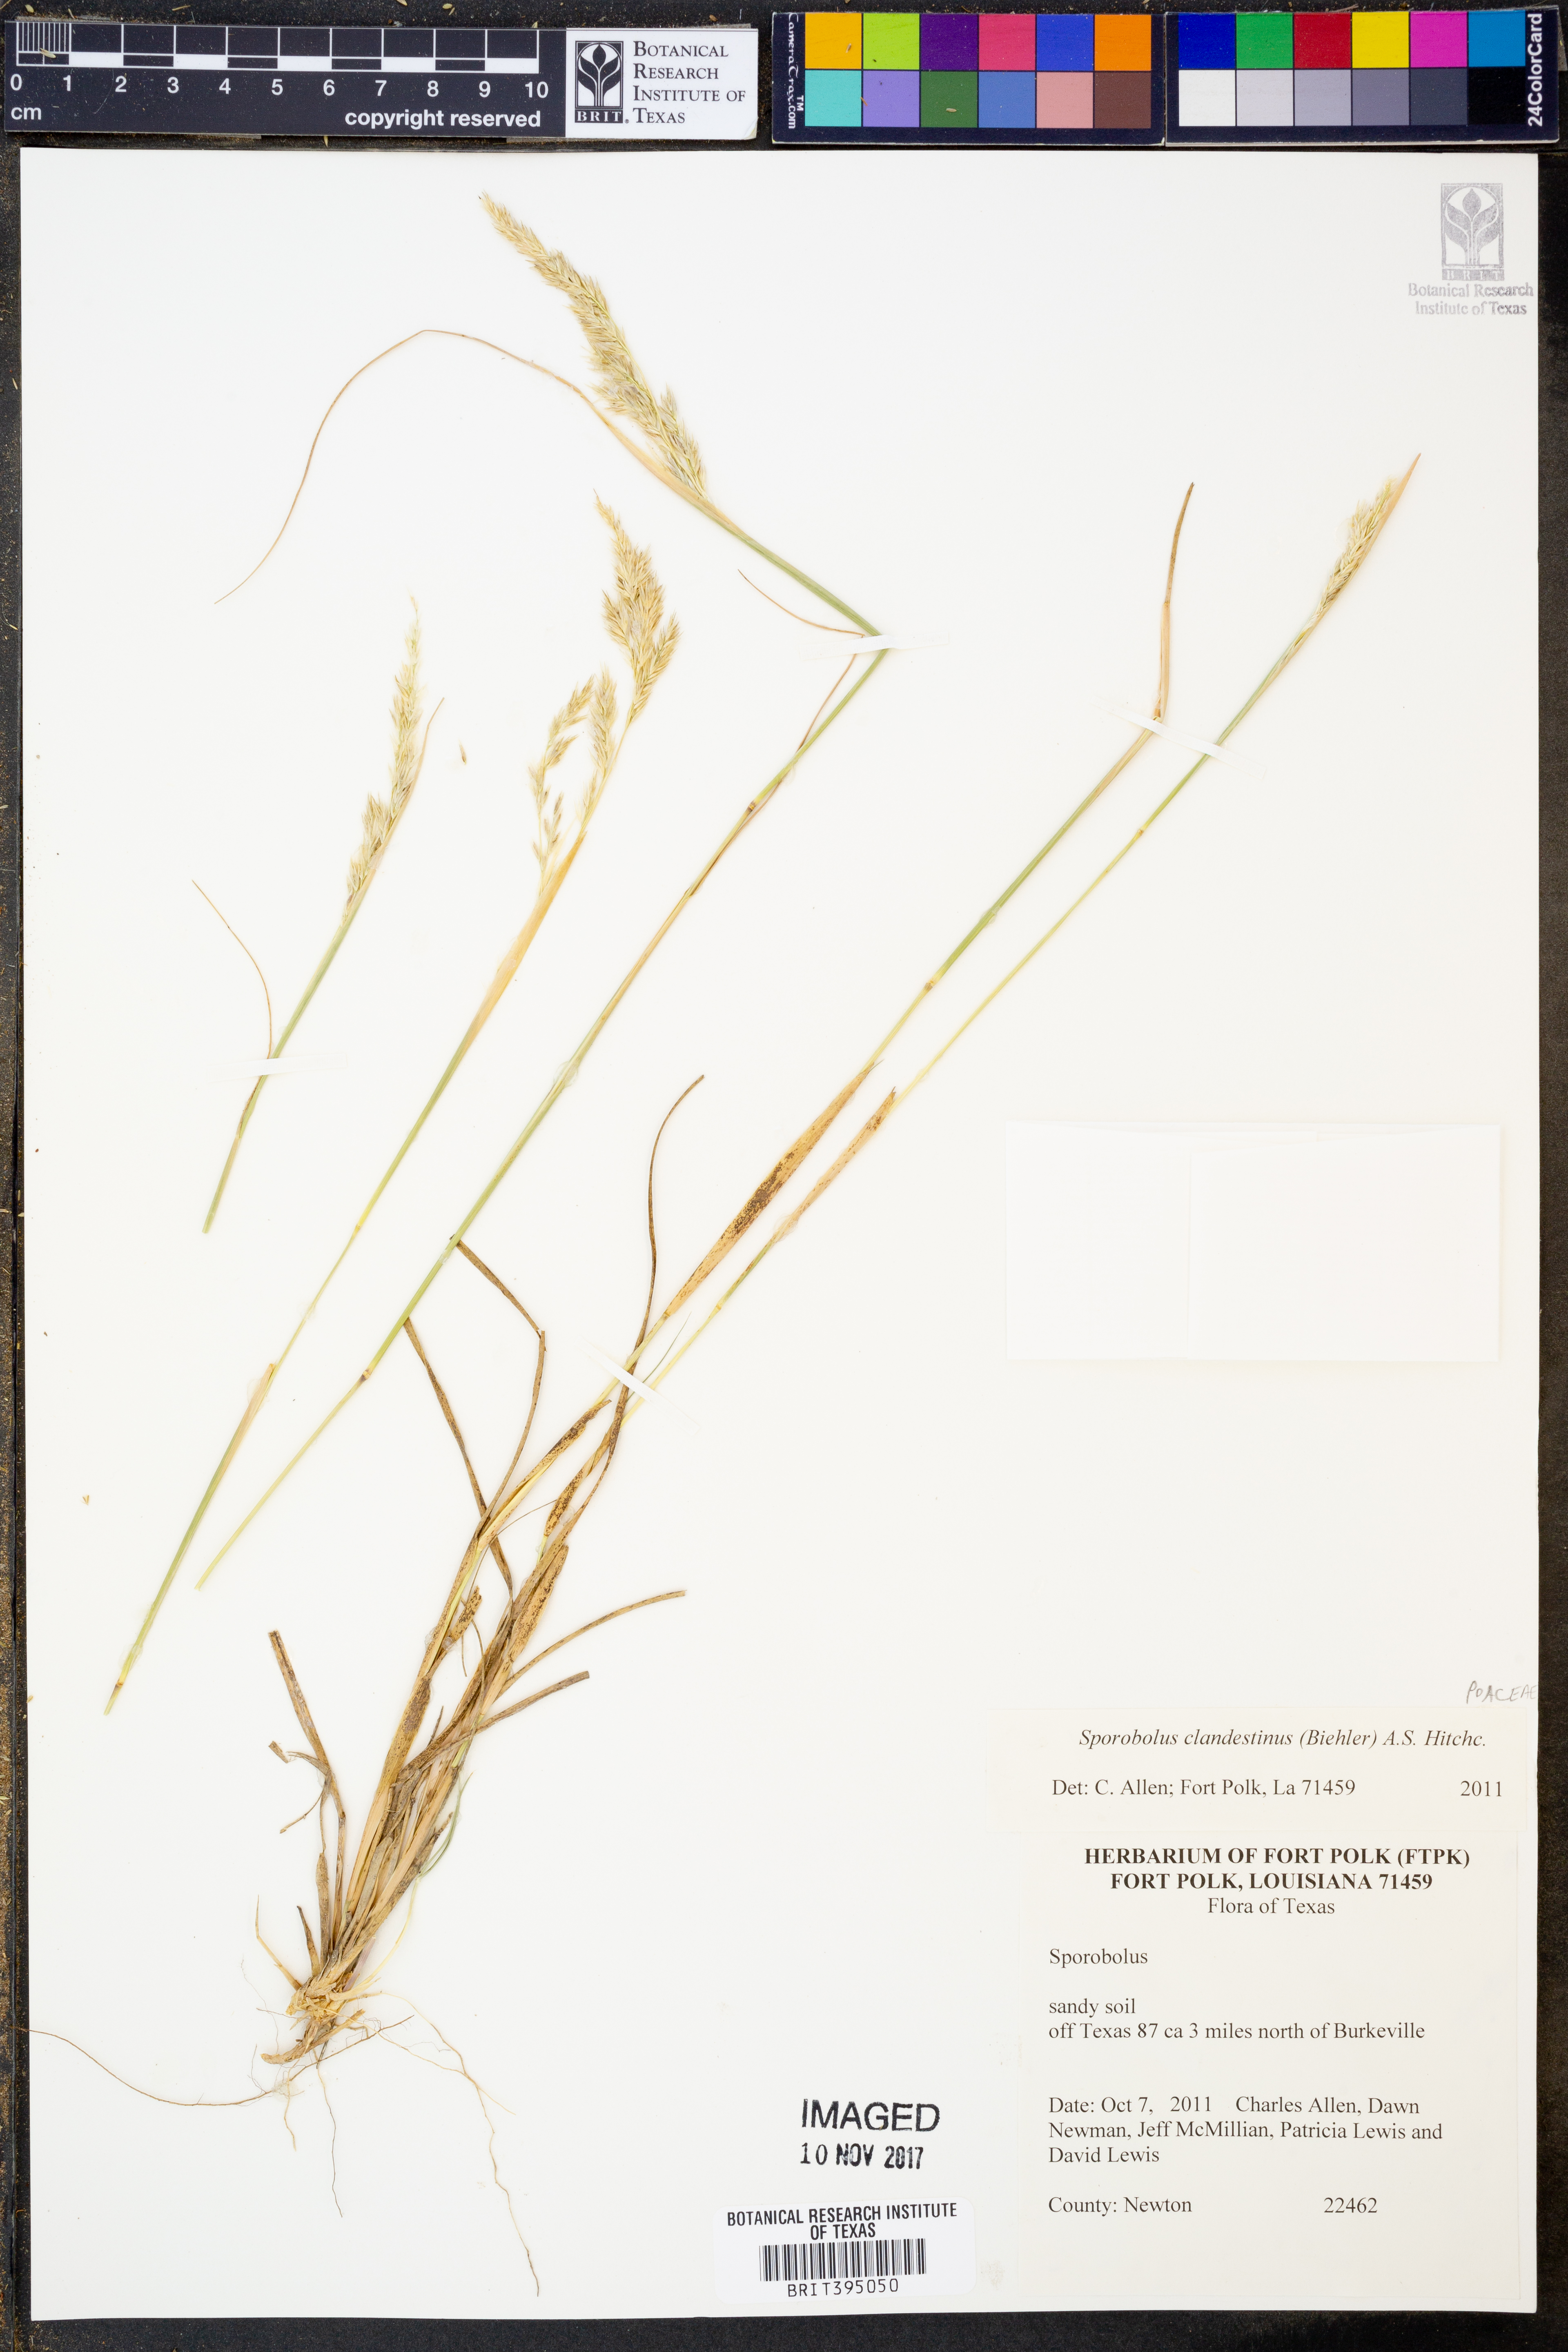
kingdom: Plantae
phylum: Tracheophyta
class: Liliopsida
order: Poales
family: Poaceae
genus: Sporobolus
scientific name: Sporobolus clandestinus
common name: Hidden dropseed
